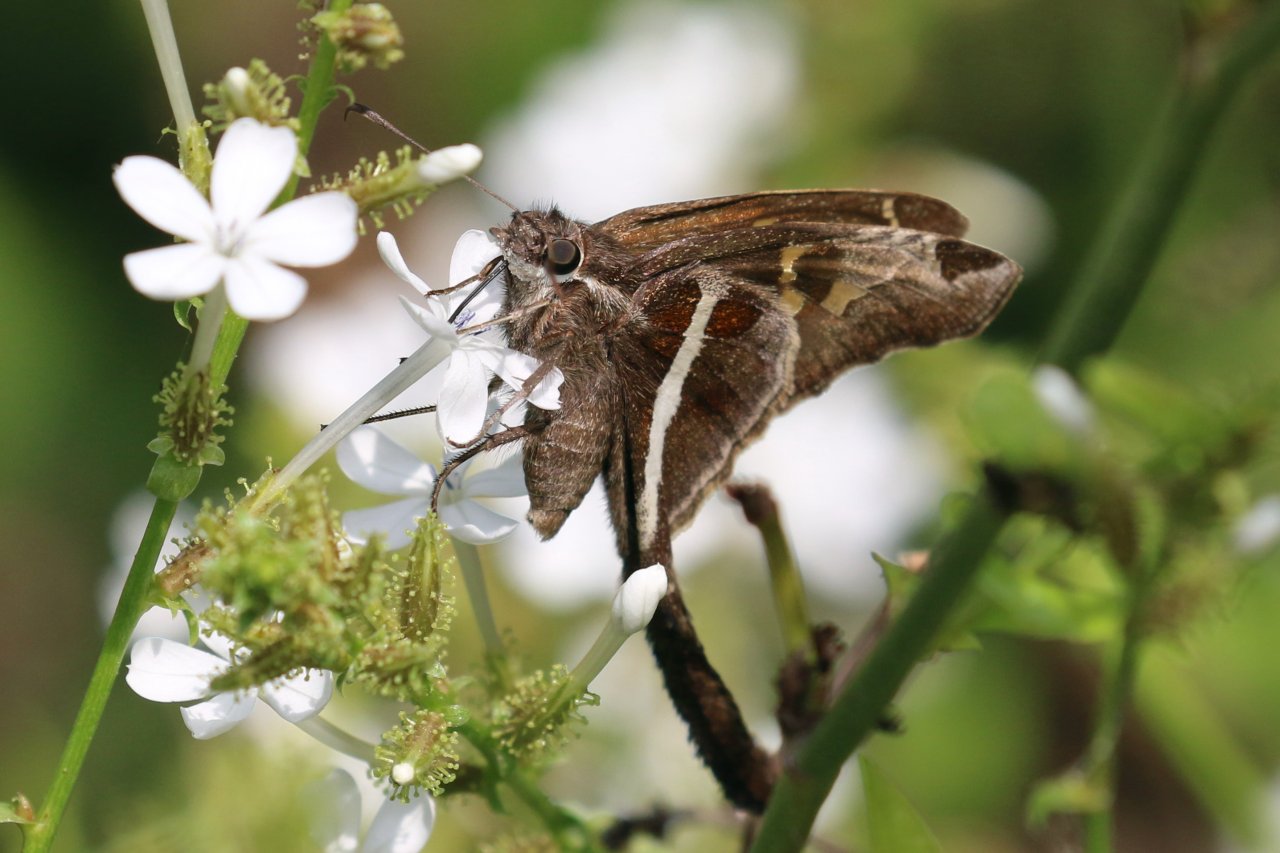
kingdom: Animalia
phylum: Arthropoda
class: Insecta
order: Lepidoptera
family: Hesperiidae
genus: Chioides
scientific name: Chioides catillus
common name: White-striped Longtail
